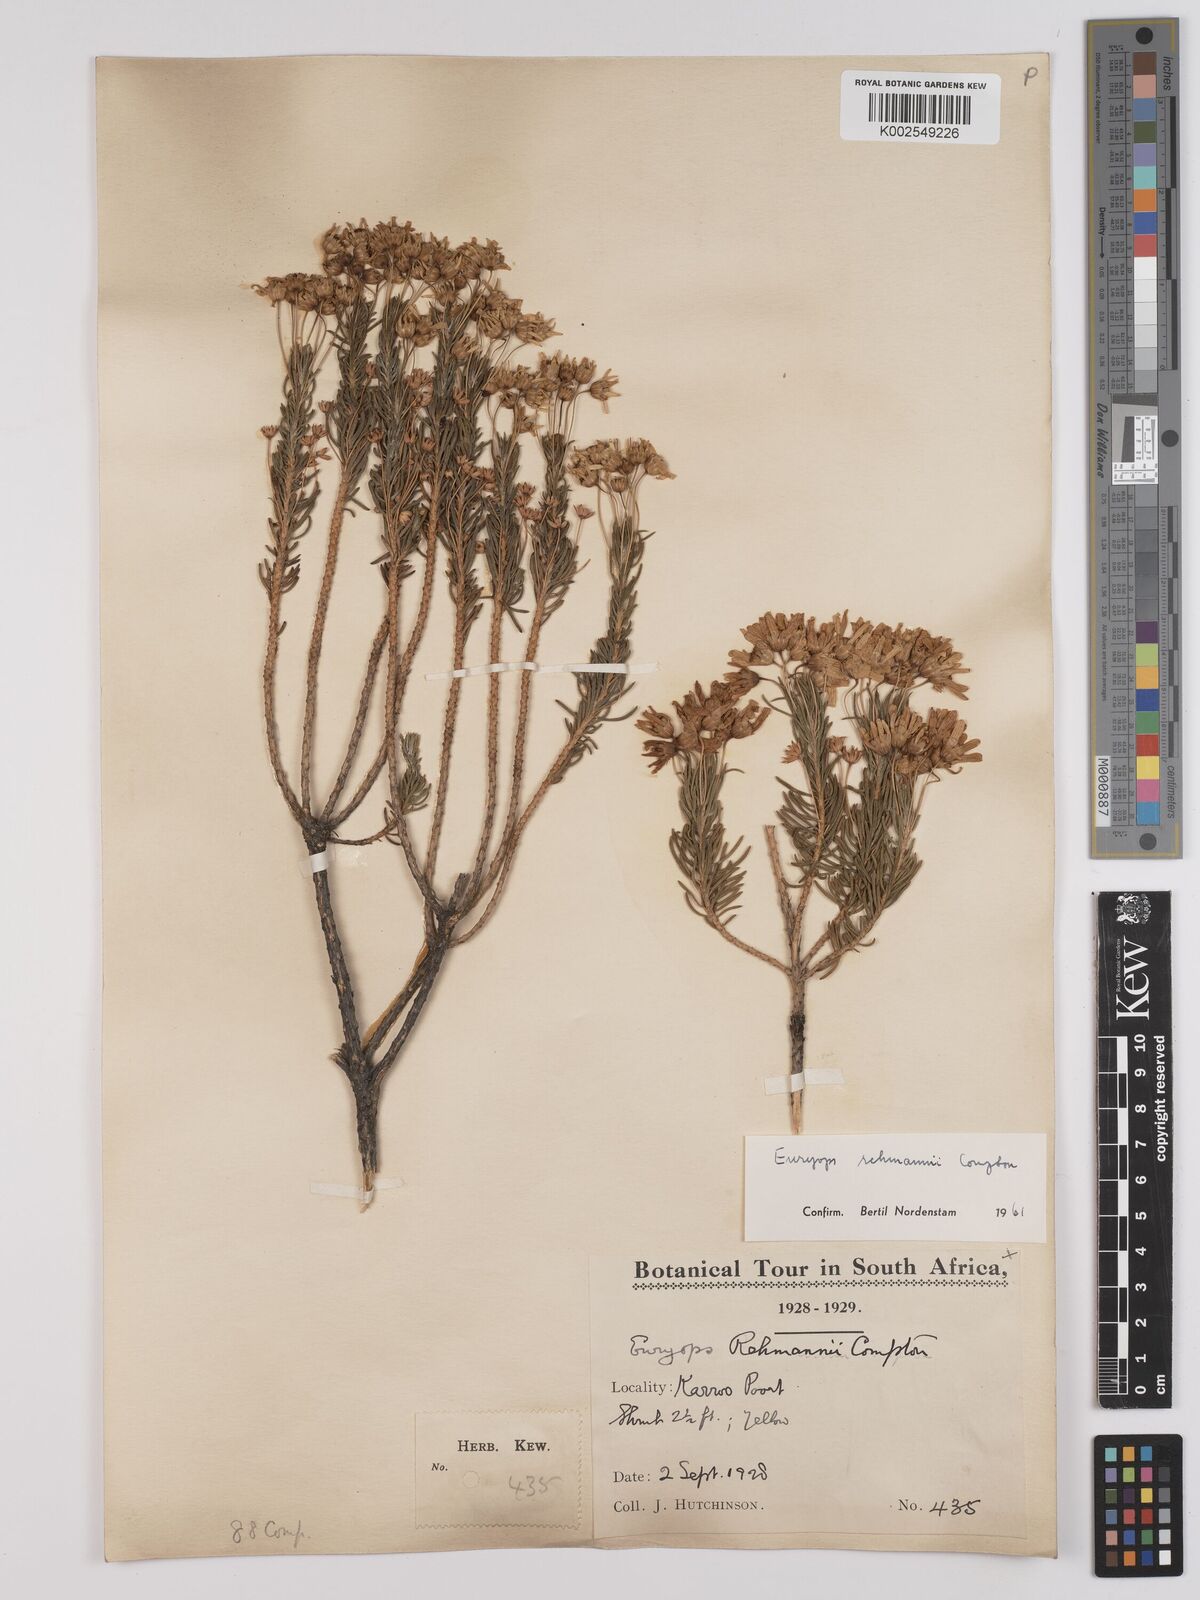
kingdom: Plantae
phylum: Tracheophyta
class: Magnoliopsida
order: Asterales
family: Asteraceae
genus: Euryops
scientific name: Euryops rehmannii
